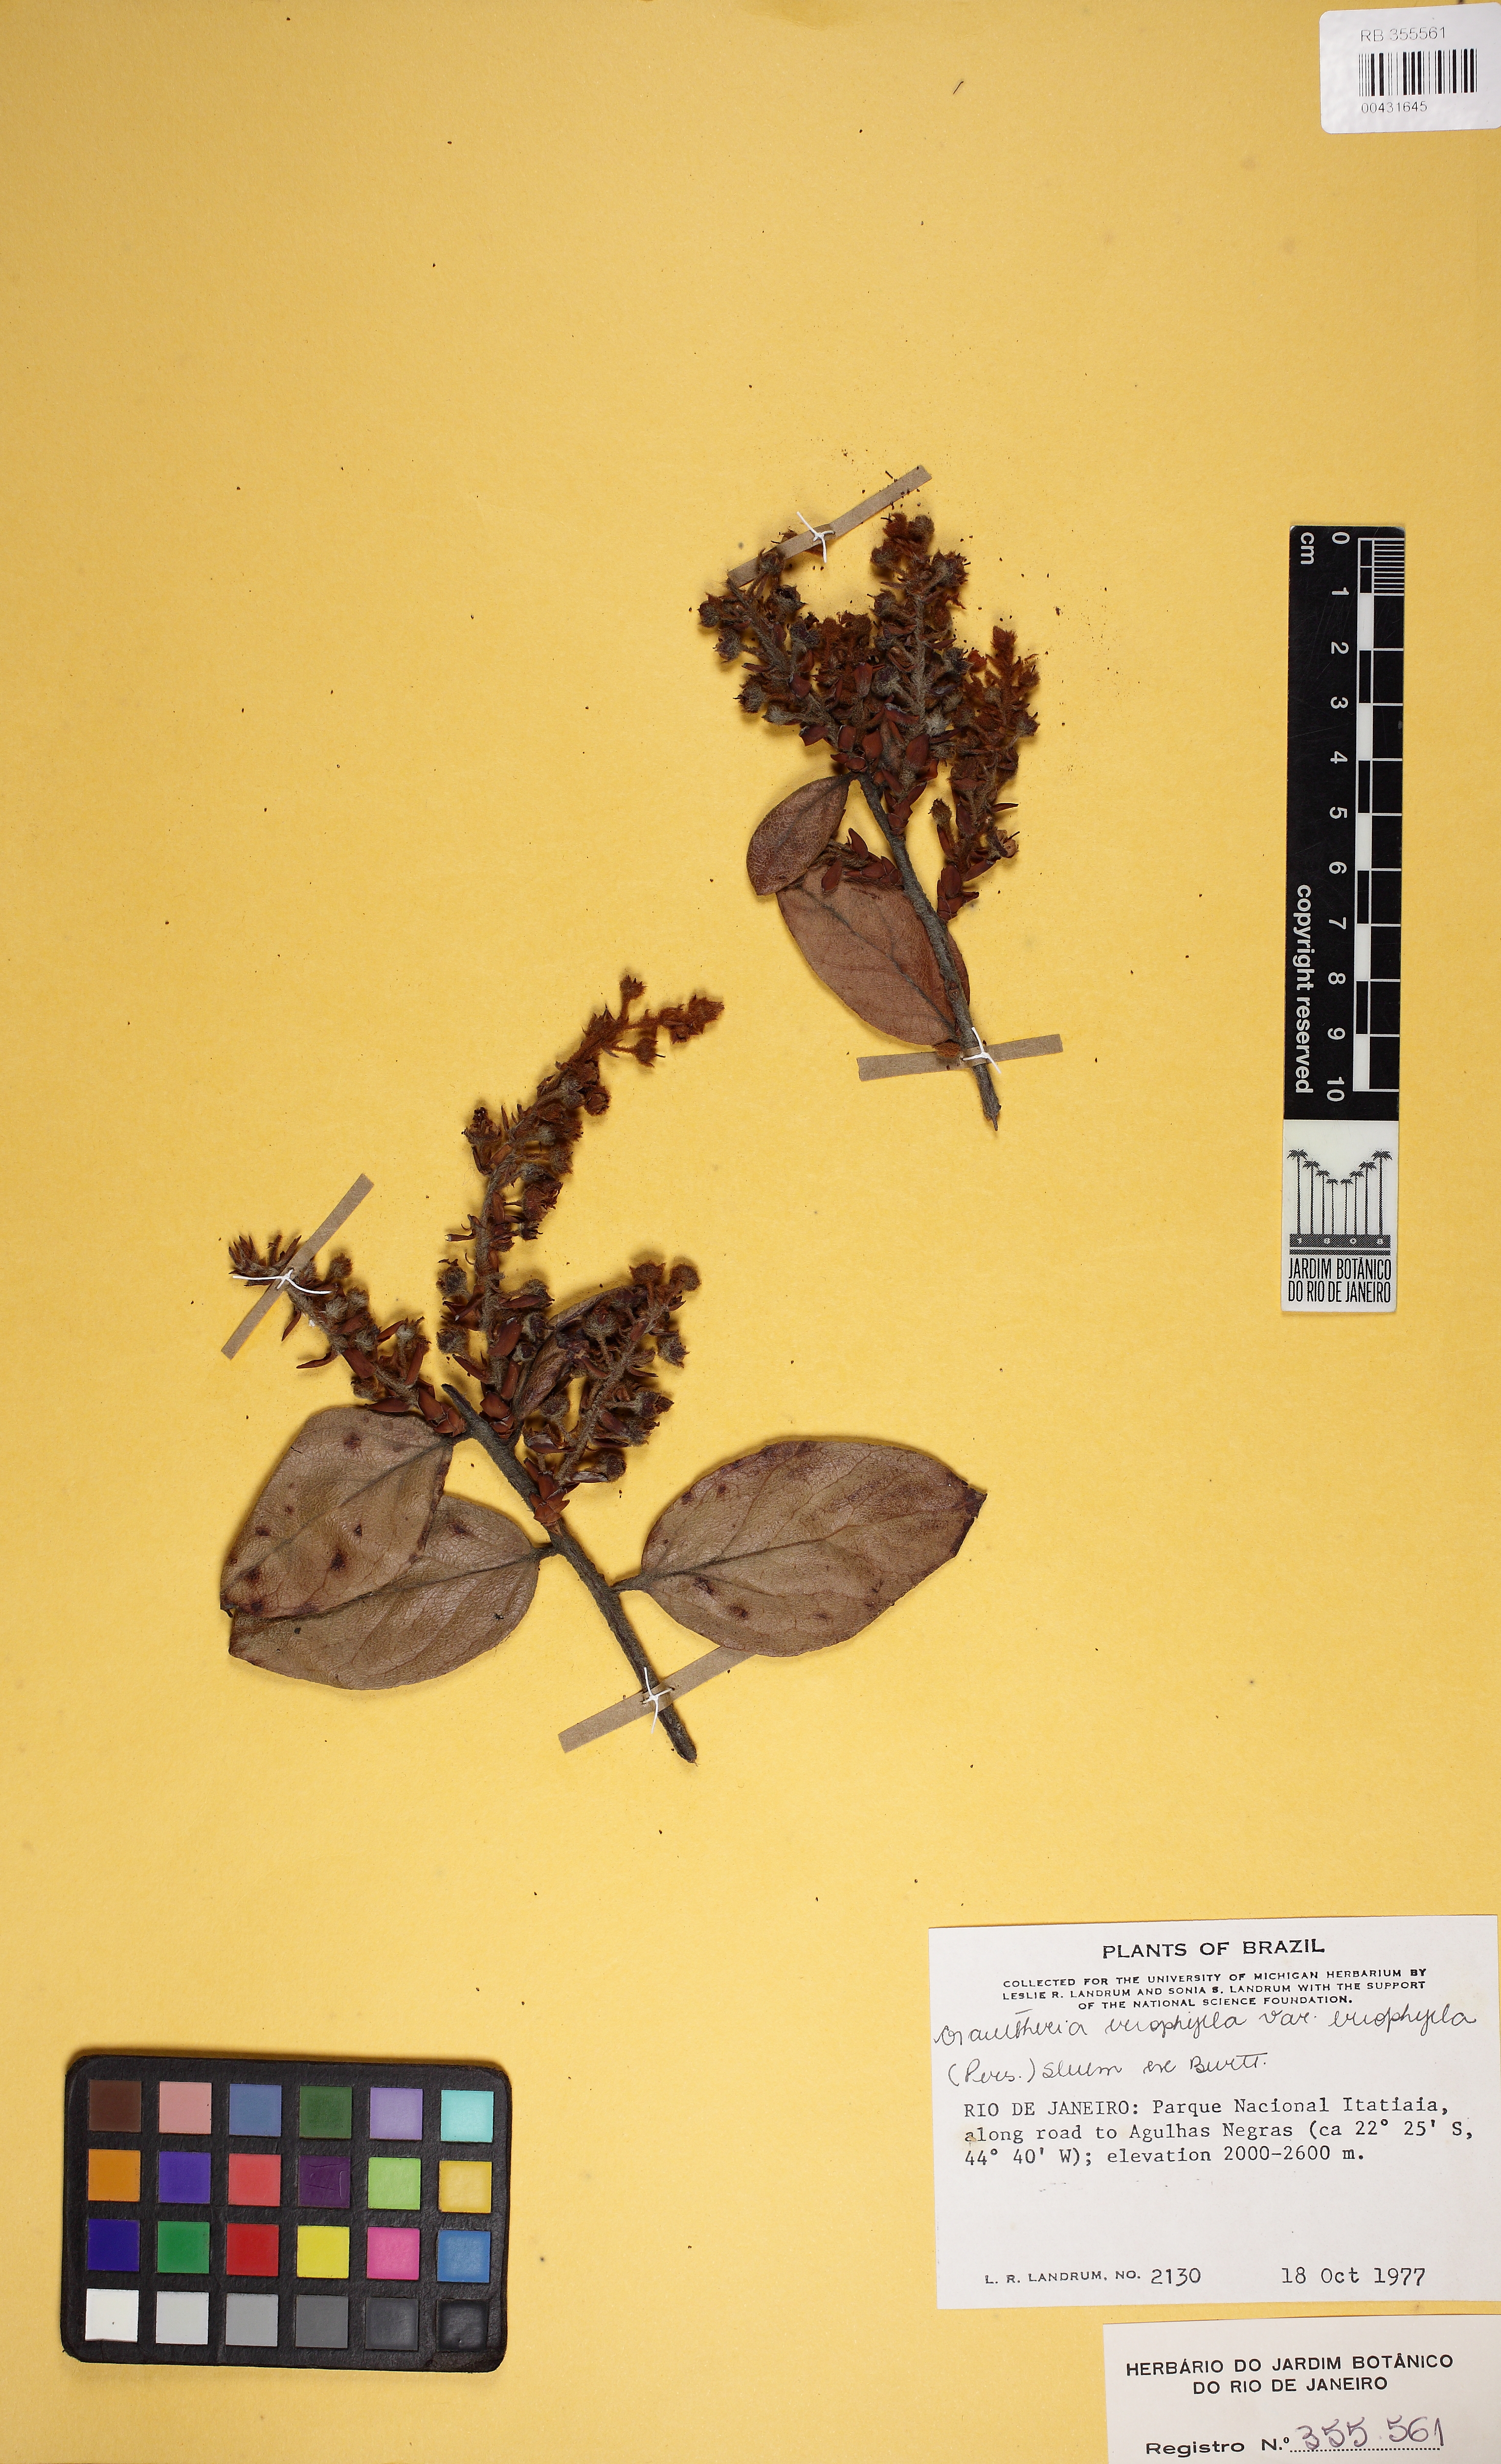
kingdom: Plantae
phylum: Tracheophyta
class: Magnoliopsida
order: Ericales
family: Ericaceae
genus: Gaultheria
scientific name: Gaultheria eriophylla
